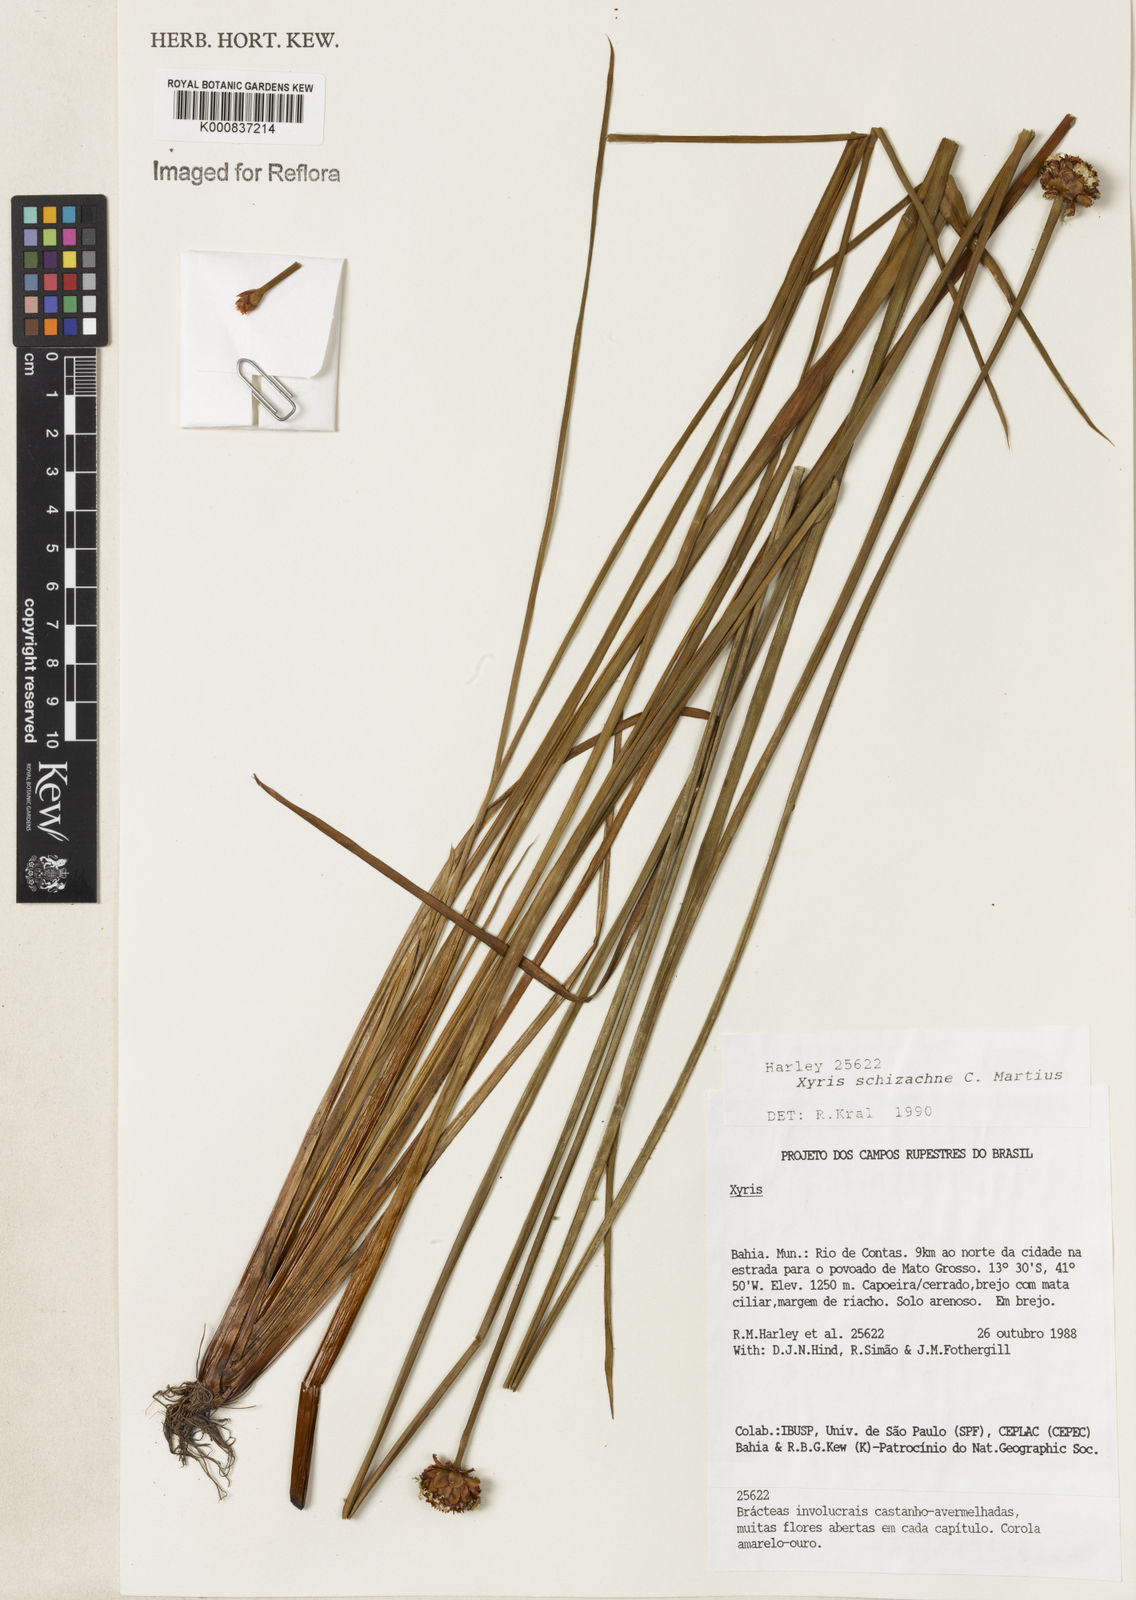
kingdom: Plantae
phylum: Tracheophyta
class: Liliopsida
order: Poales
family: Xyridaceae
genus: Xyris
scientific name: Xyris schizachne
